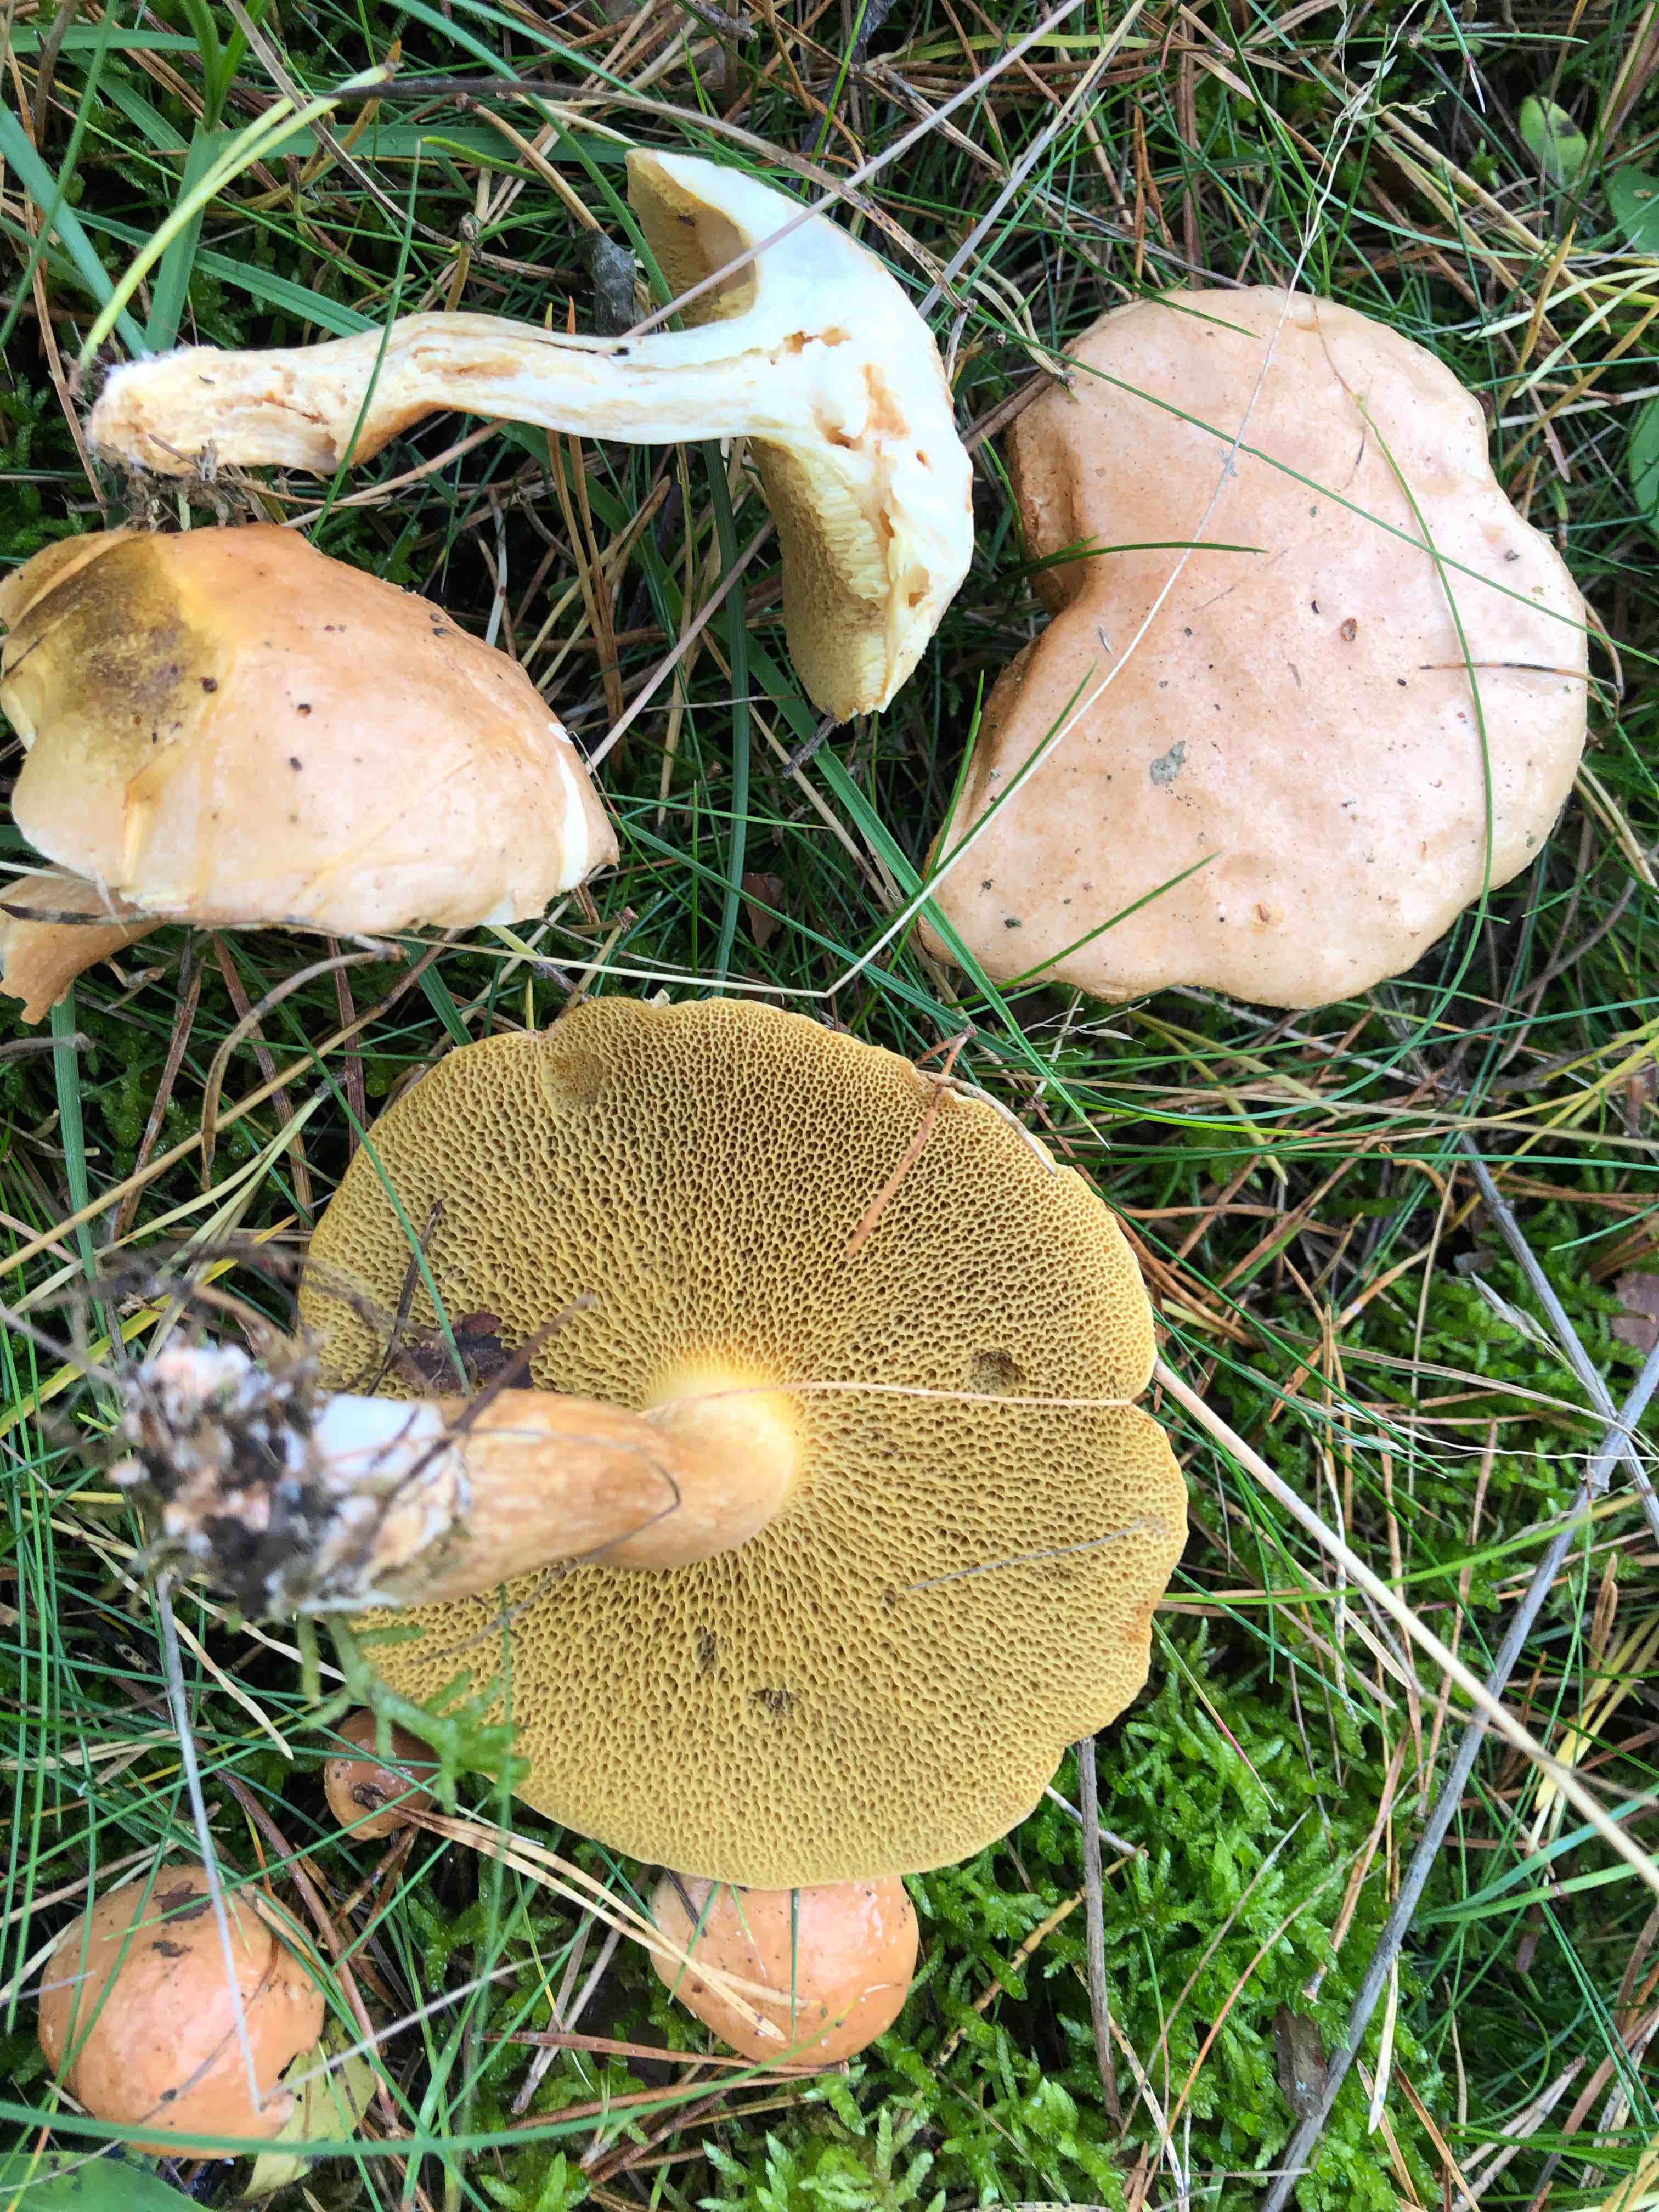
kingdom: Fungi
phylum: Basidiomycota
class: Agaricomycetes
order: Boletales
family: Suillaceae
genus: Suillus
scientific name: Suillus bovinus
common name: grovporet slimrørhat
